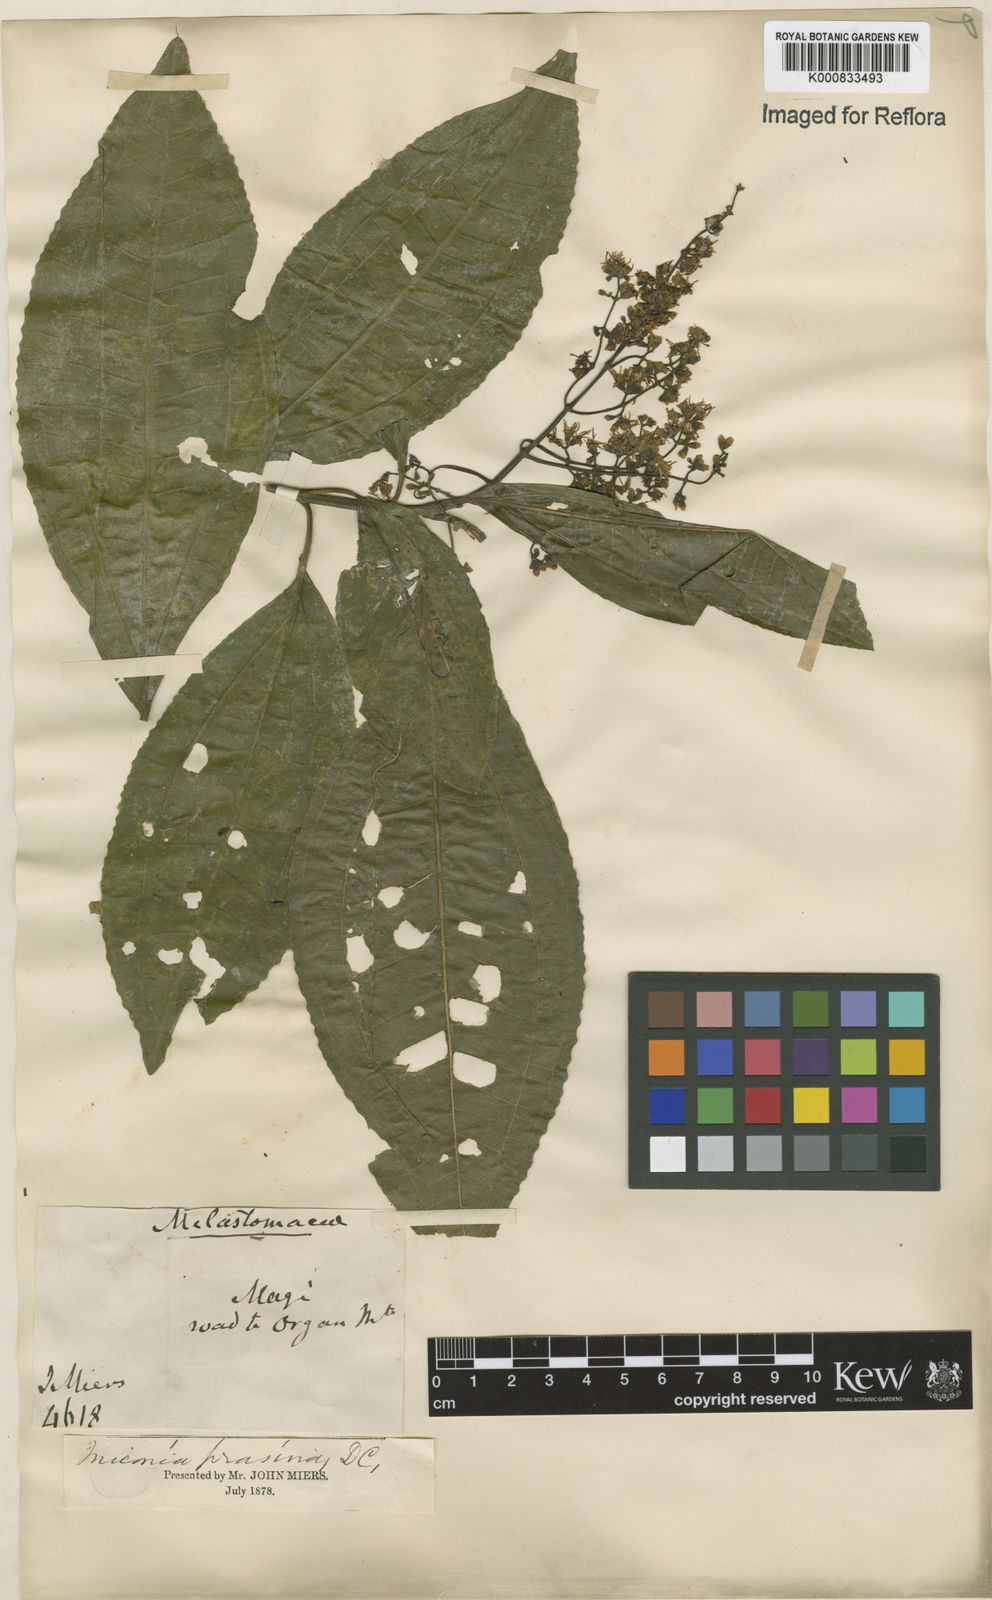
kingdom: Plantae
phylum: Tracheophyta
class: Magnoliopsida
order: Myrtales
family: Melastomataceae
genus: Miconia
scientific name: Miconia prasina
